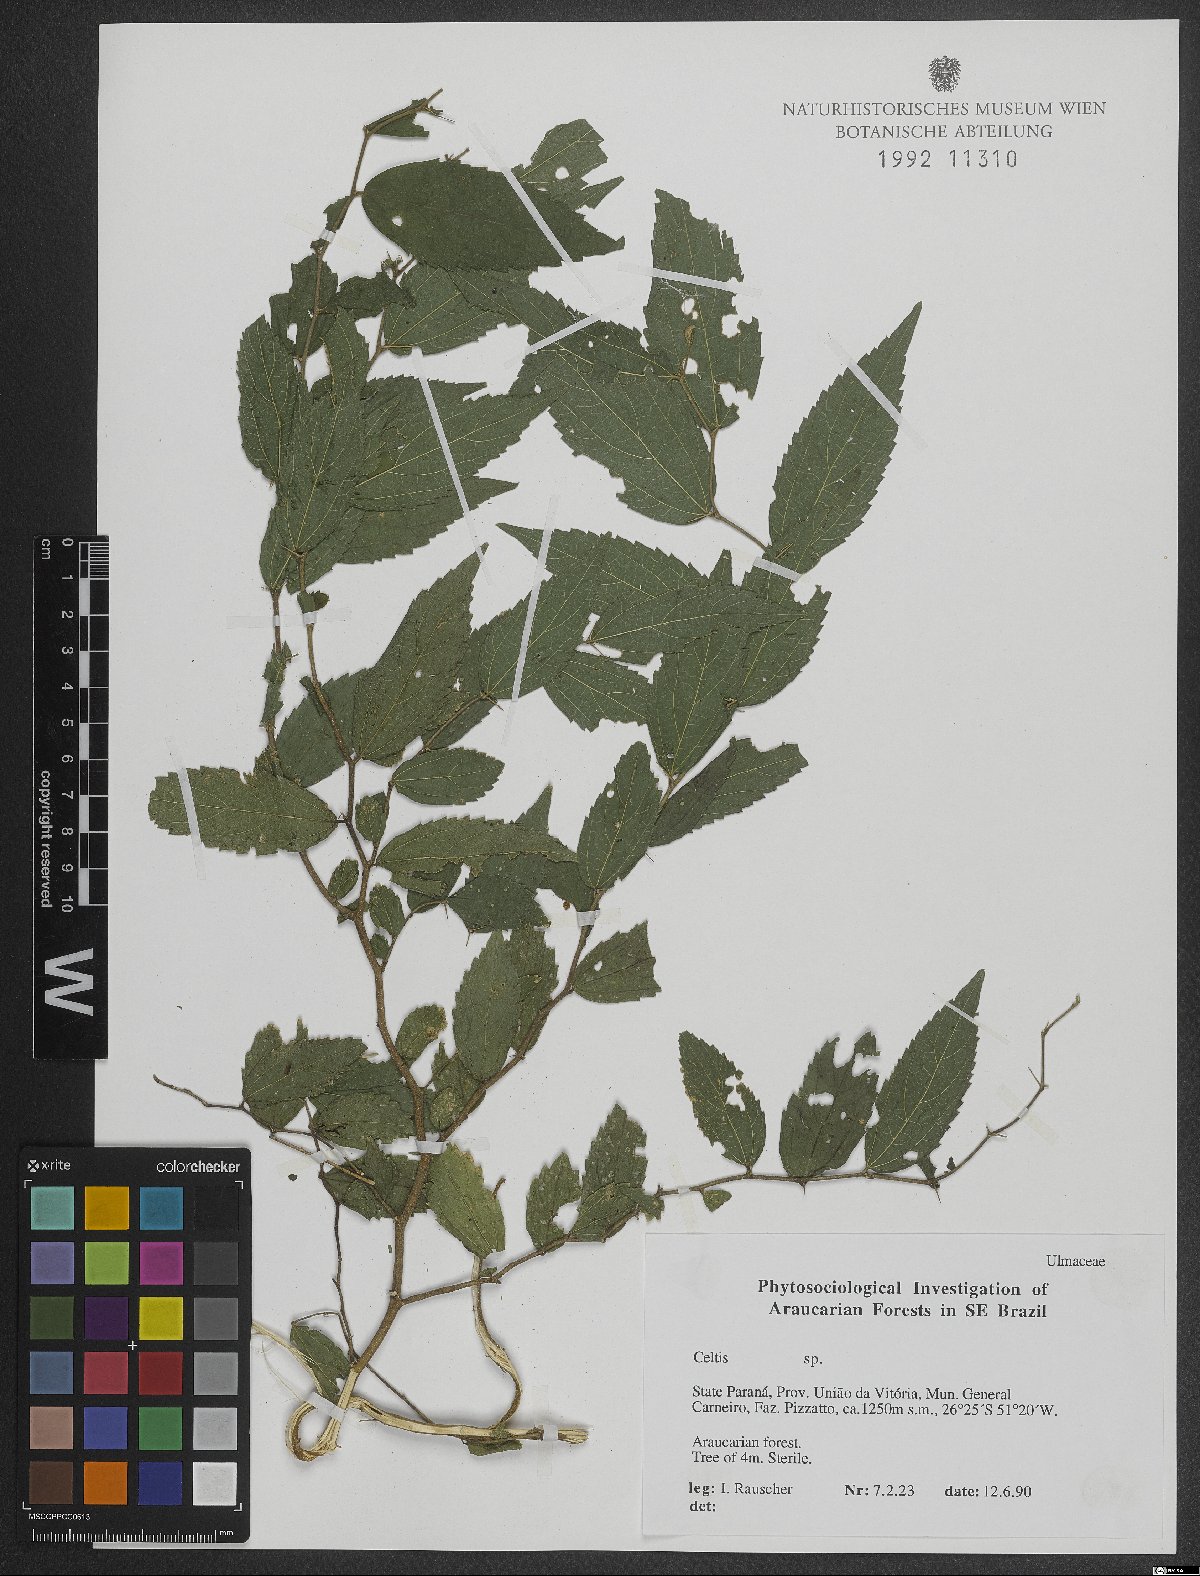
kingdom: Plantae
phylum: Tracheophyta
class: Magnoliopsida
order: Rosales
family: Cannabaceae
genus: Celtis
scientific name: Celtis
